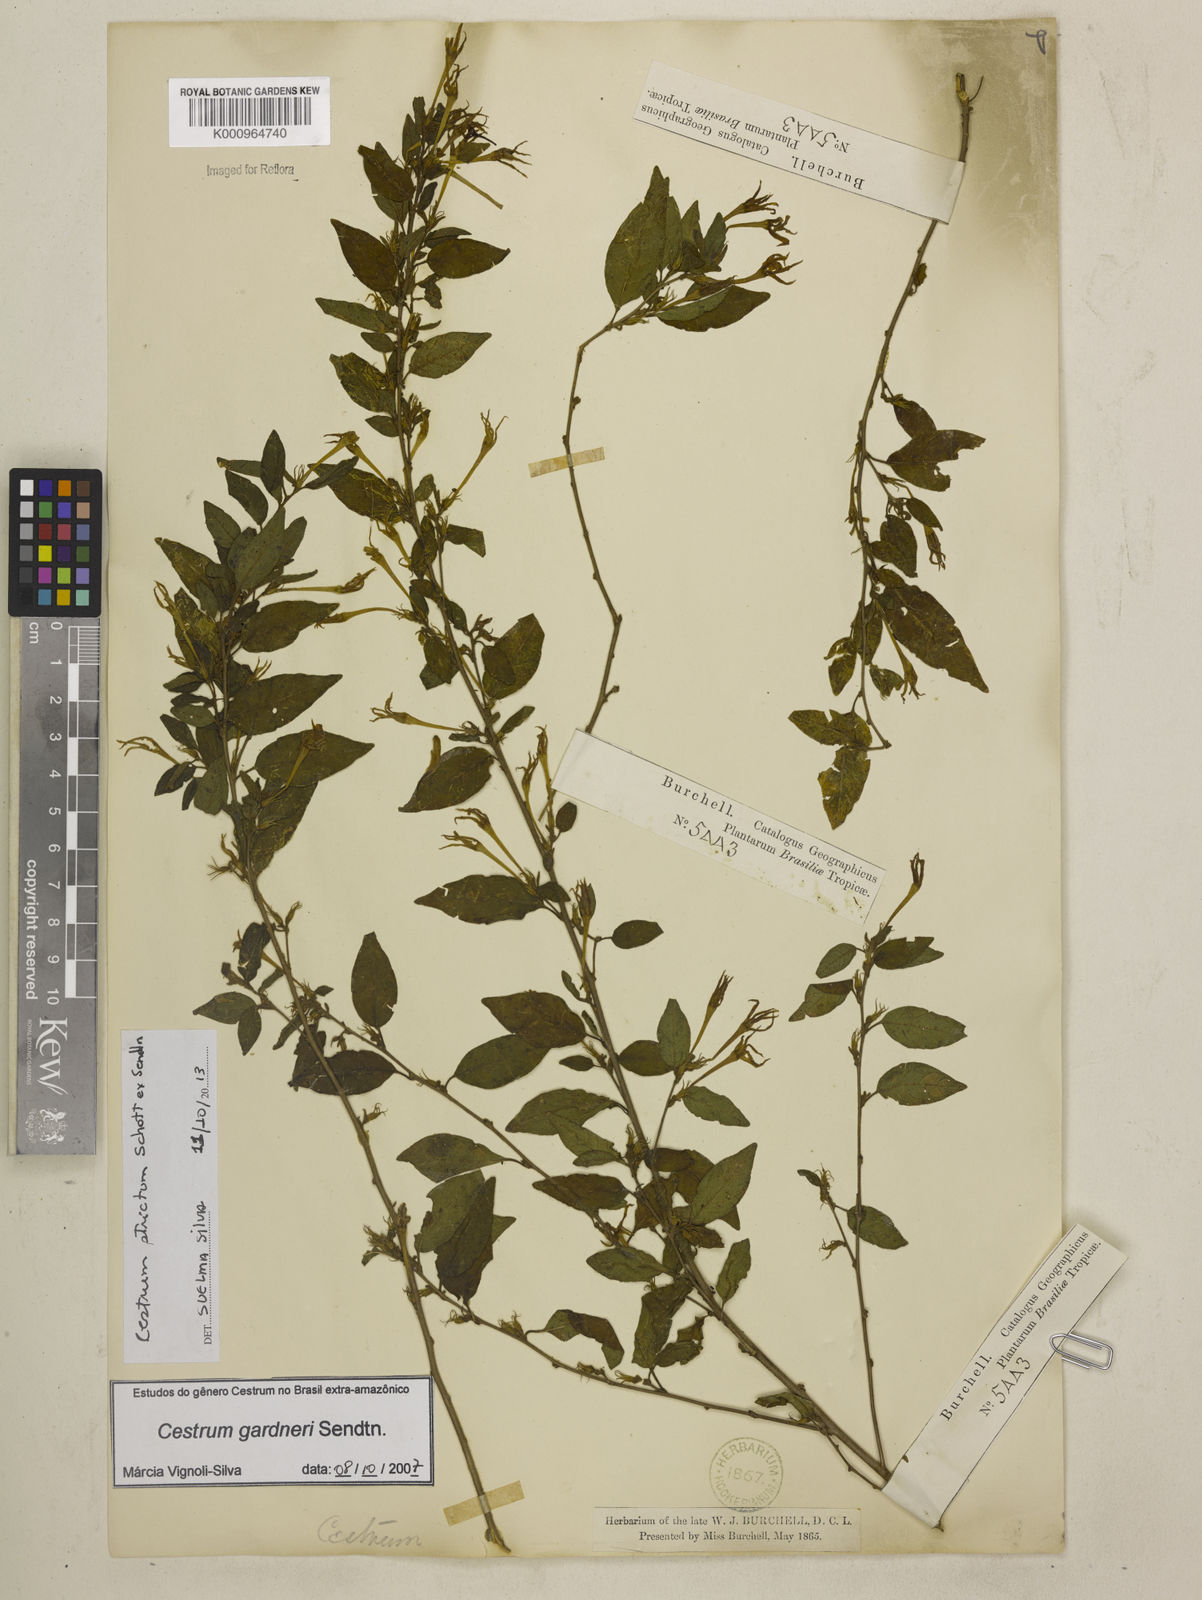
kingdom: Plantae
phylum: Tracheophyta
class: Magnoliopsida
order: Solanales
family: Solanaceae
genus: Cestrum
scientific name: Cestrum strictum
